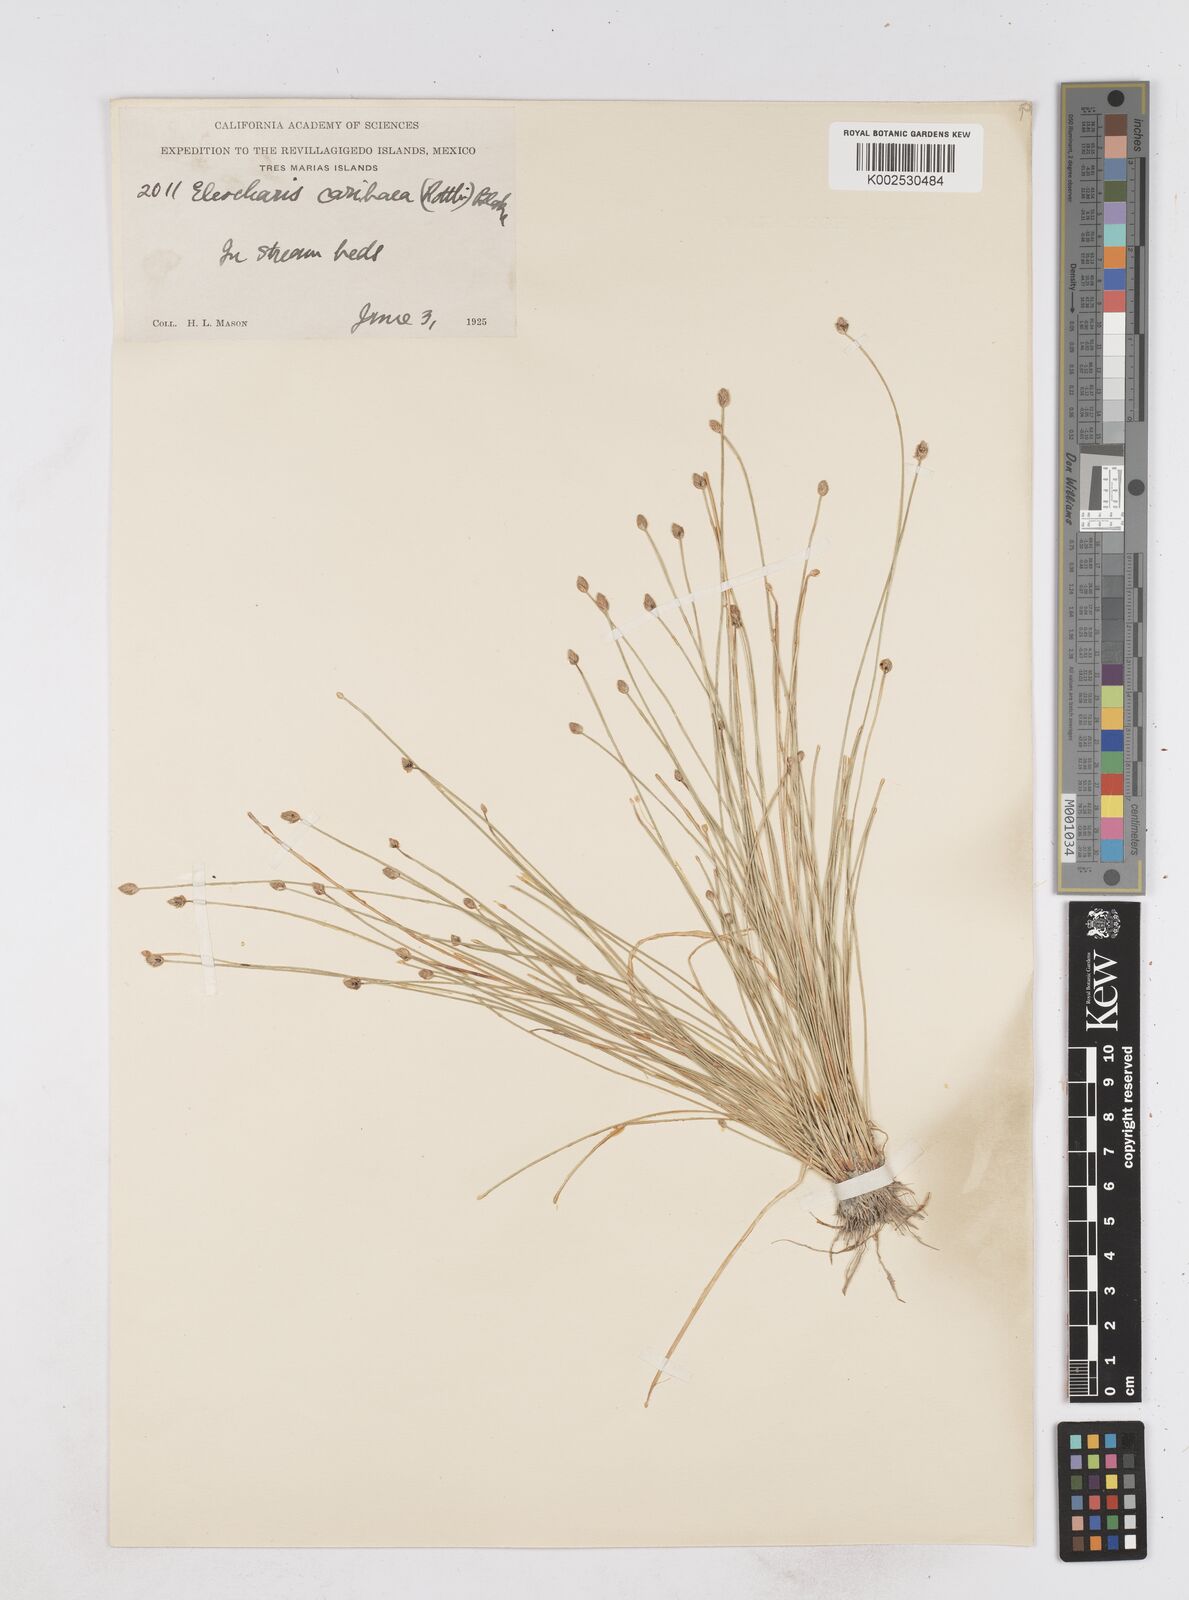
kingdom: Plantae
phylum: Tracheophyta
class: Liliopsida
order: Poales
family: Cyperaceae
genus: Eleocharis
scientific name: Eleocharis geniculata
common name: Canada spikesedge
